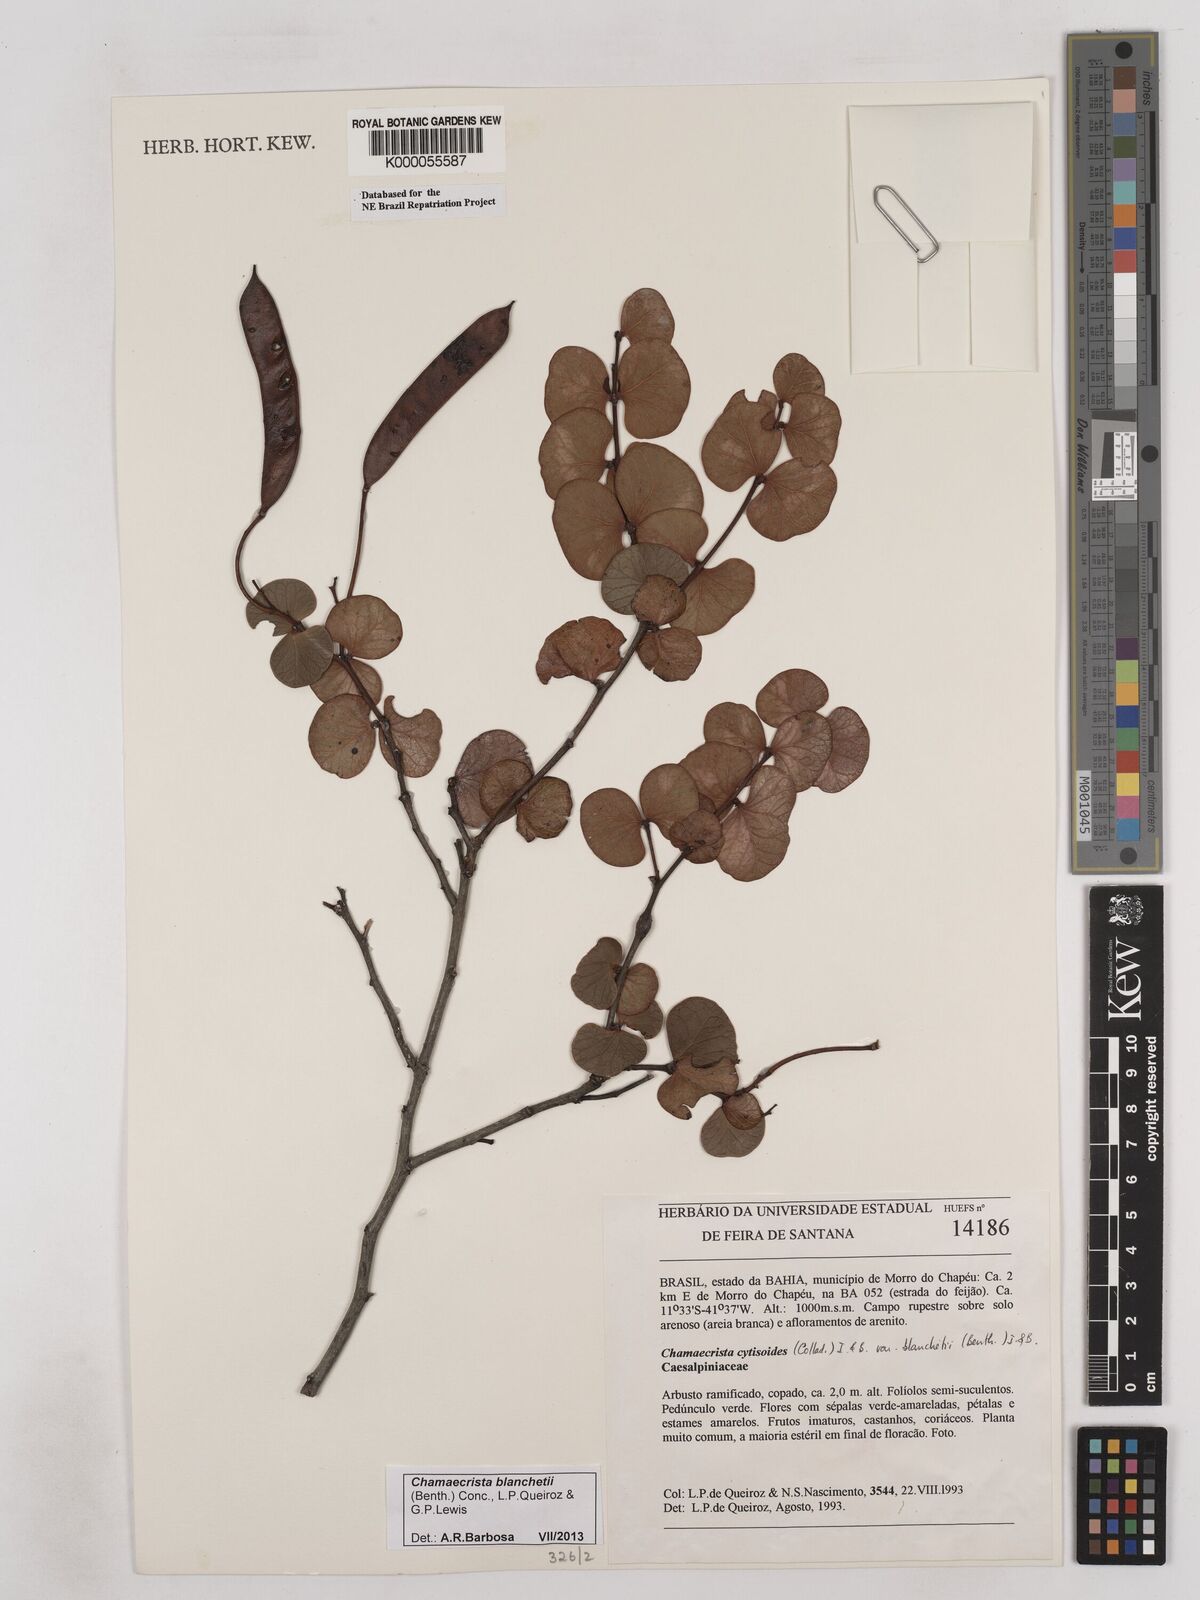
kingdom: Plantae
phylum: Tracheophyta
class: Magnoliopsida
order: Fabales
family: Fabaceae
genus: Chamaecrista
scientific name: Chamaecrista cytisoides
